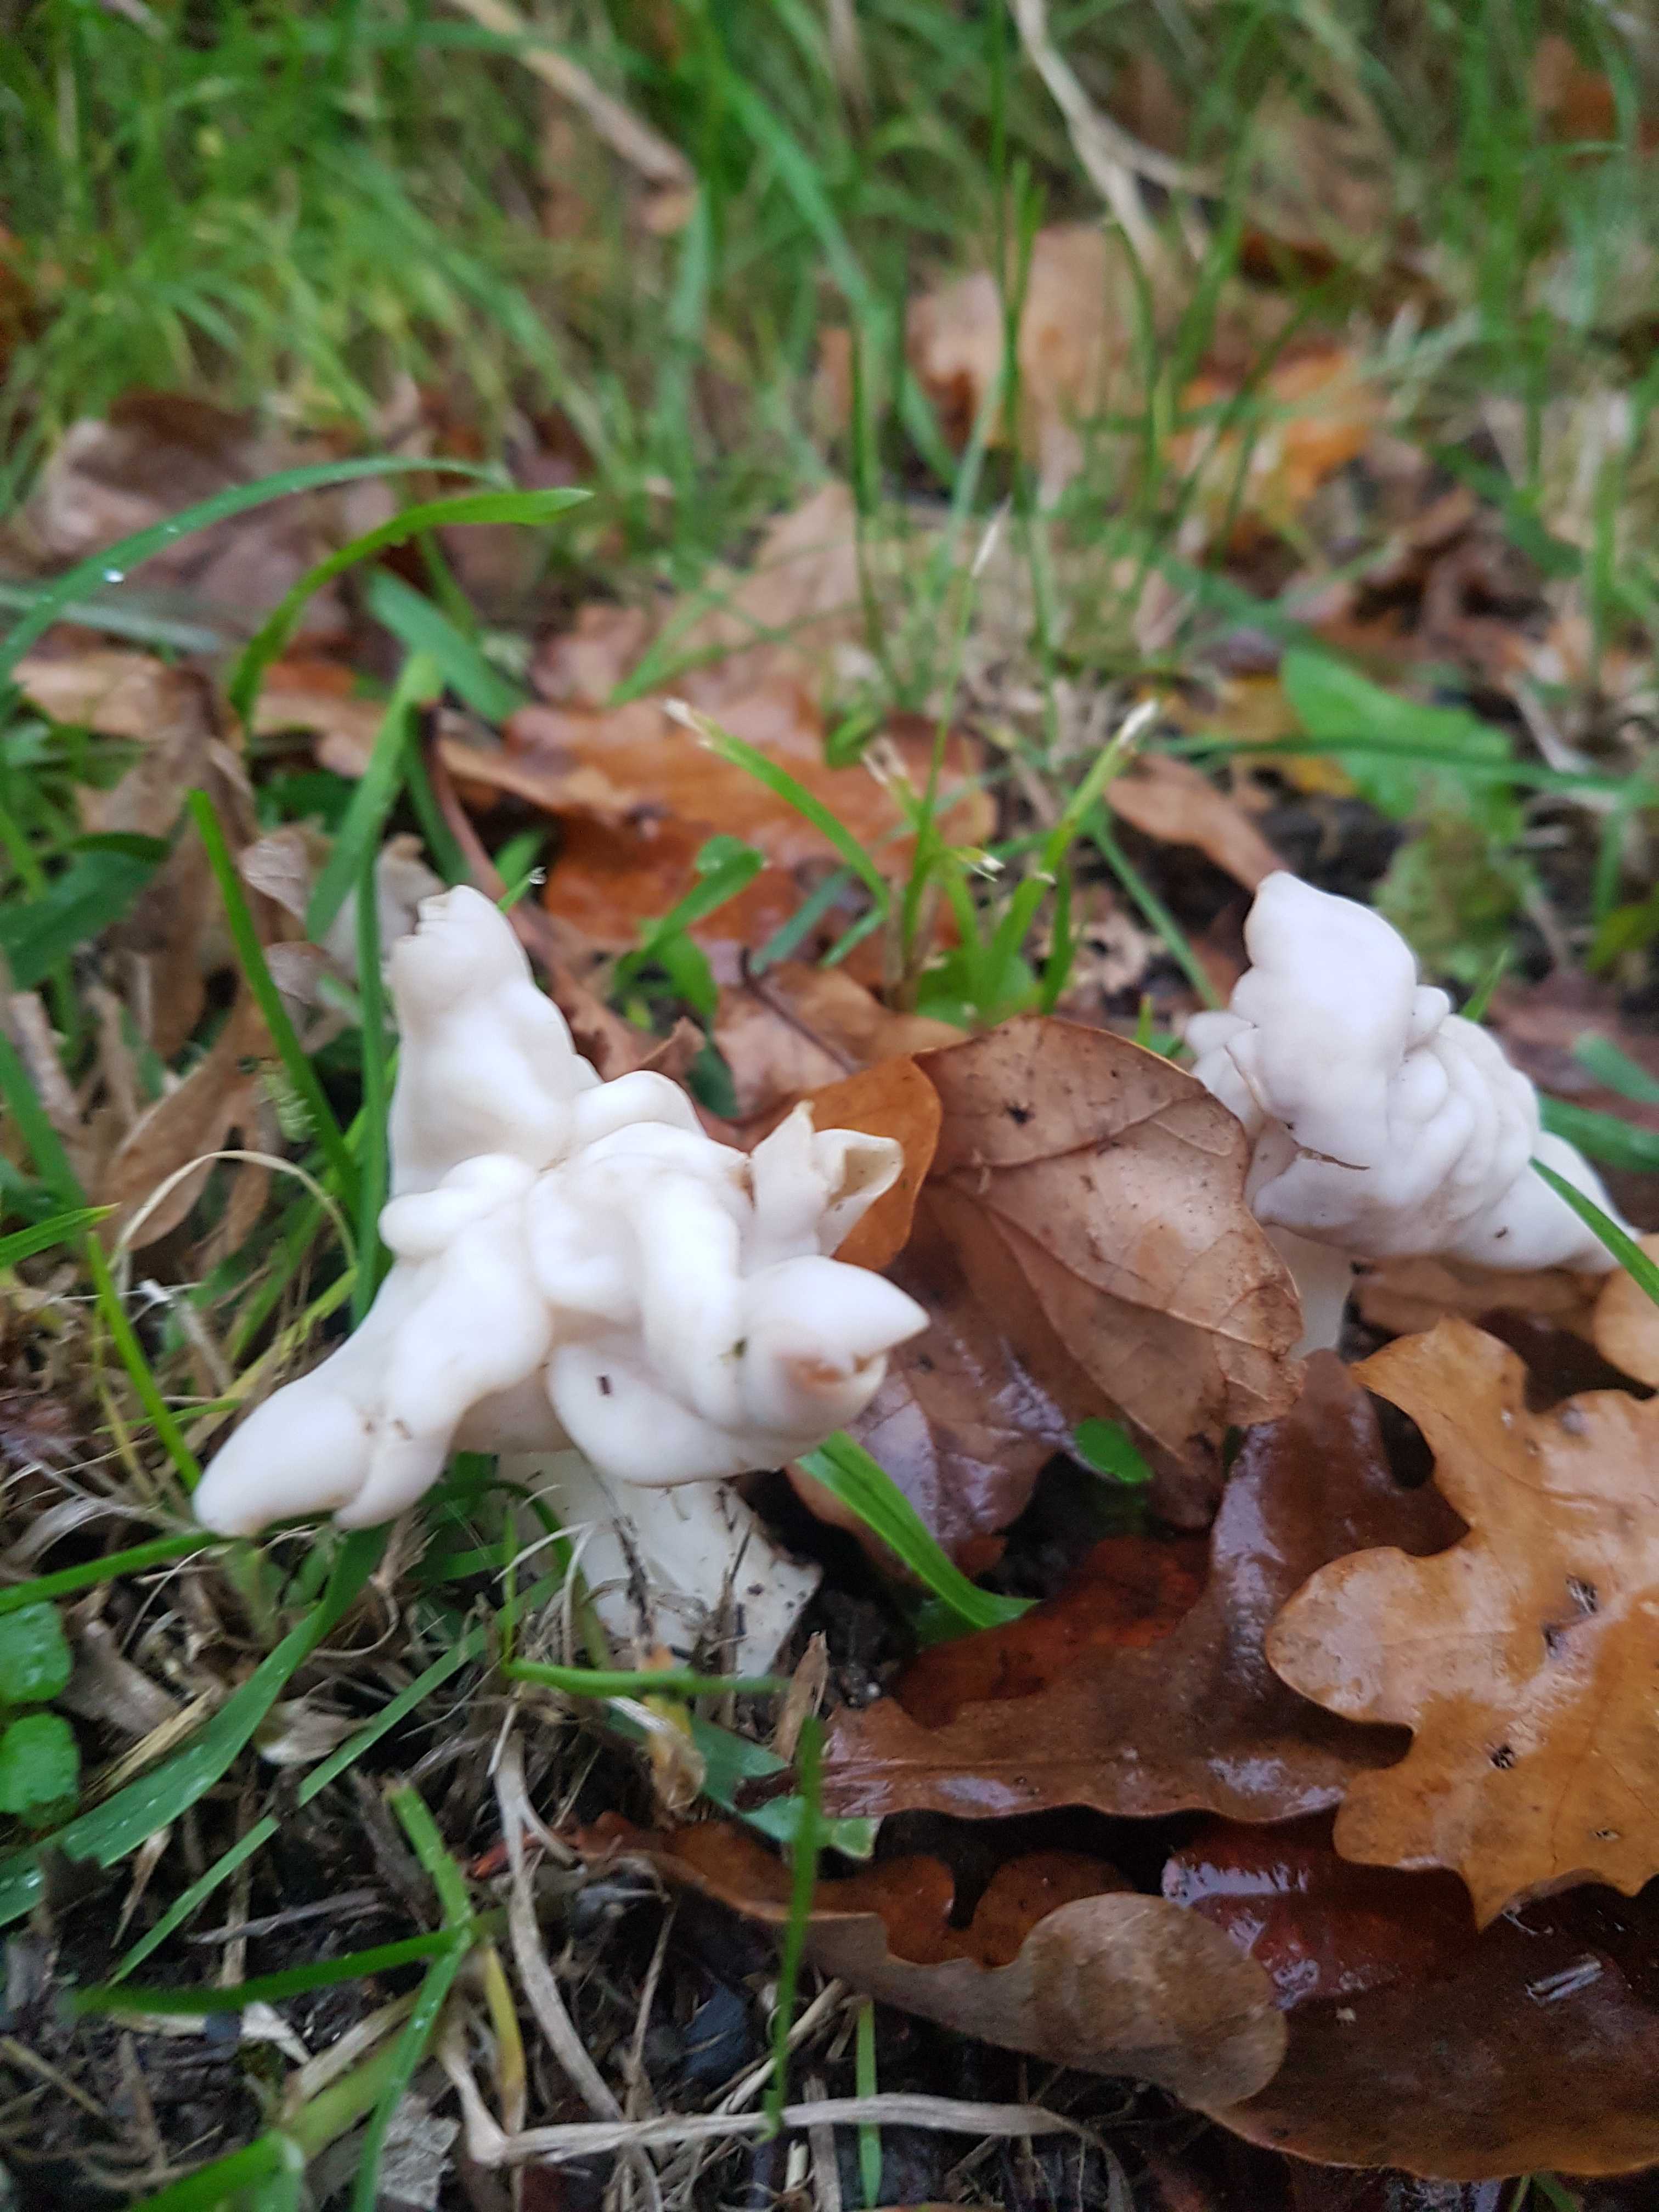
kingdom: Fungi
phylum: Ascomycota
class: Pezizomycetes
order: Pezizales
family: Helvellaceae
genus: Helvella
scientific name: Helvella crispa
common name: kruset foldhat
